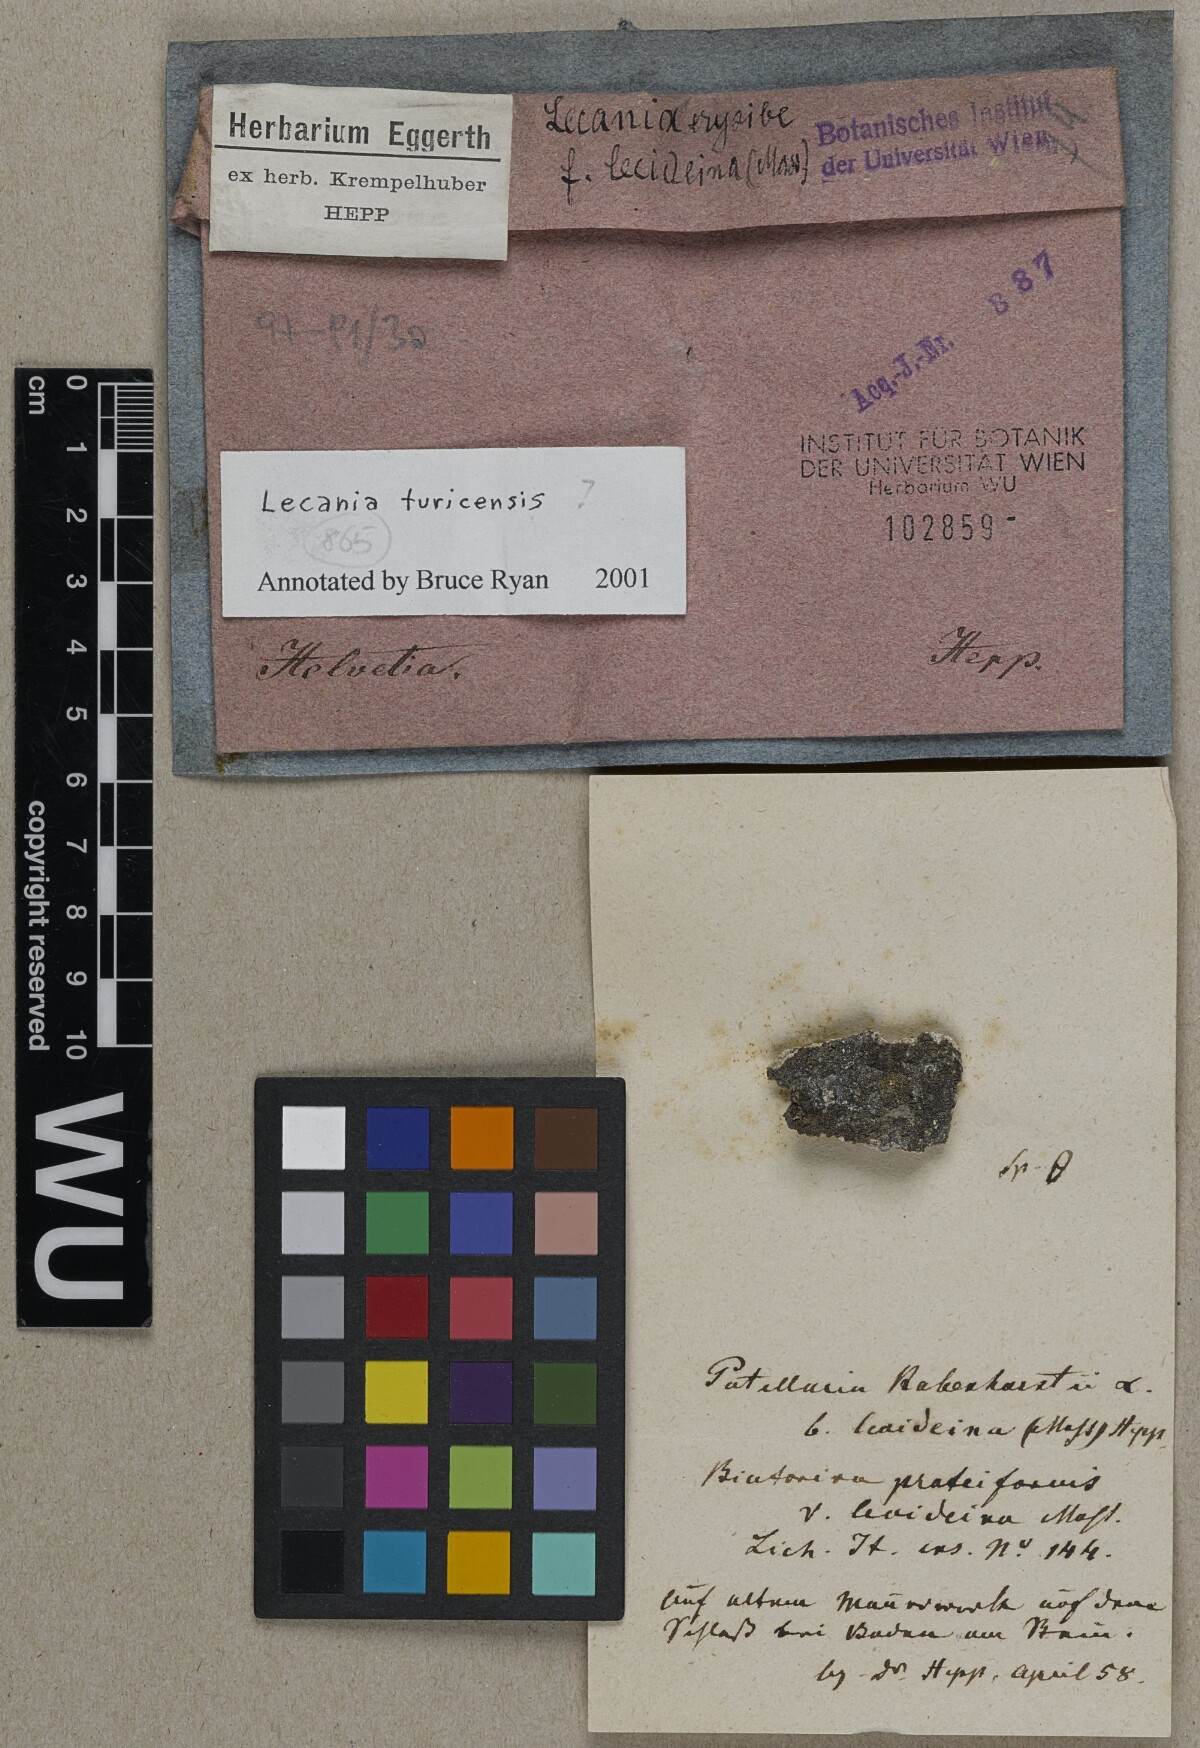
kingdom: Fungi
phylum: Ascomycota
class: Lecanoromycetes
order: Lecanorales
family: Ramalinaceae
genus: Lecania
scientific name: Lecania turicensis
